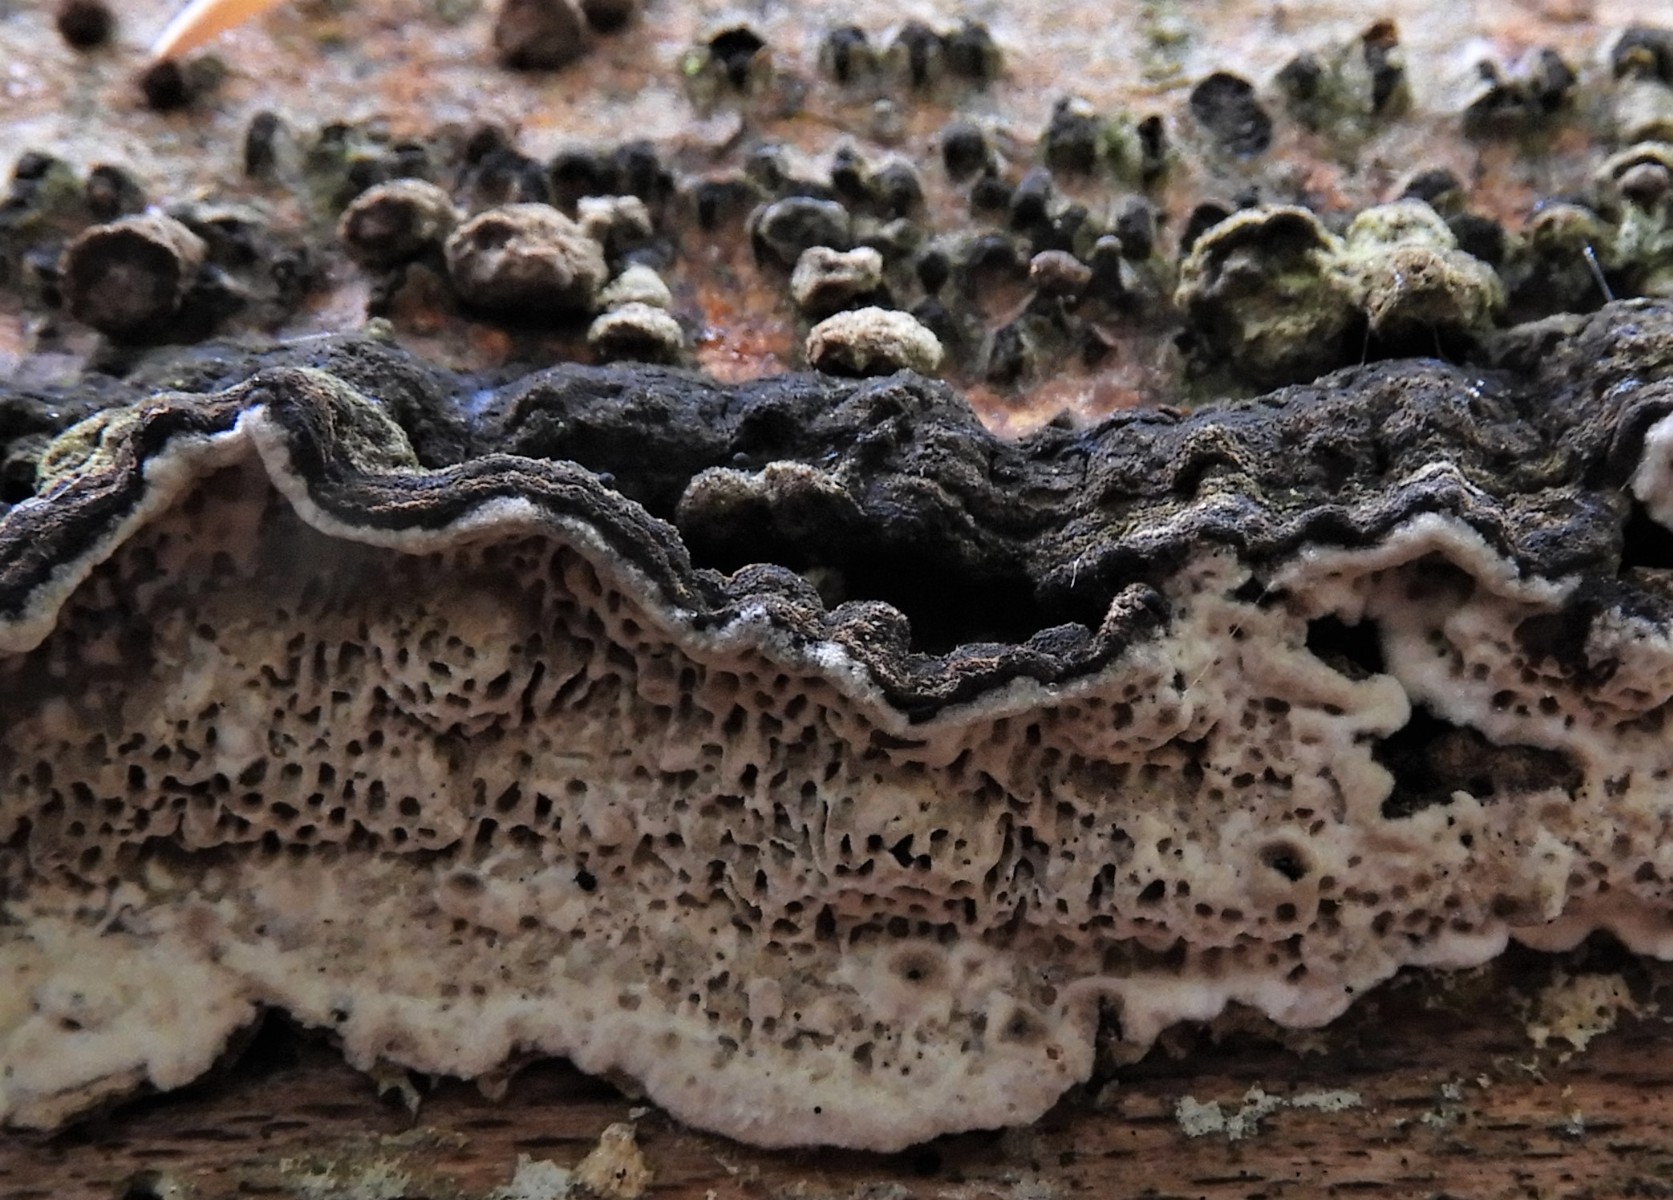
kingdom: Fungi
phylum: Basidiomycota
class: Agaricomycetes
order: Polyporales
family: Polyporaceae
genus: Podofomes
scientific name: Podofomes mollis
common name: blød begporesvamp
